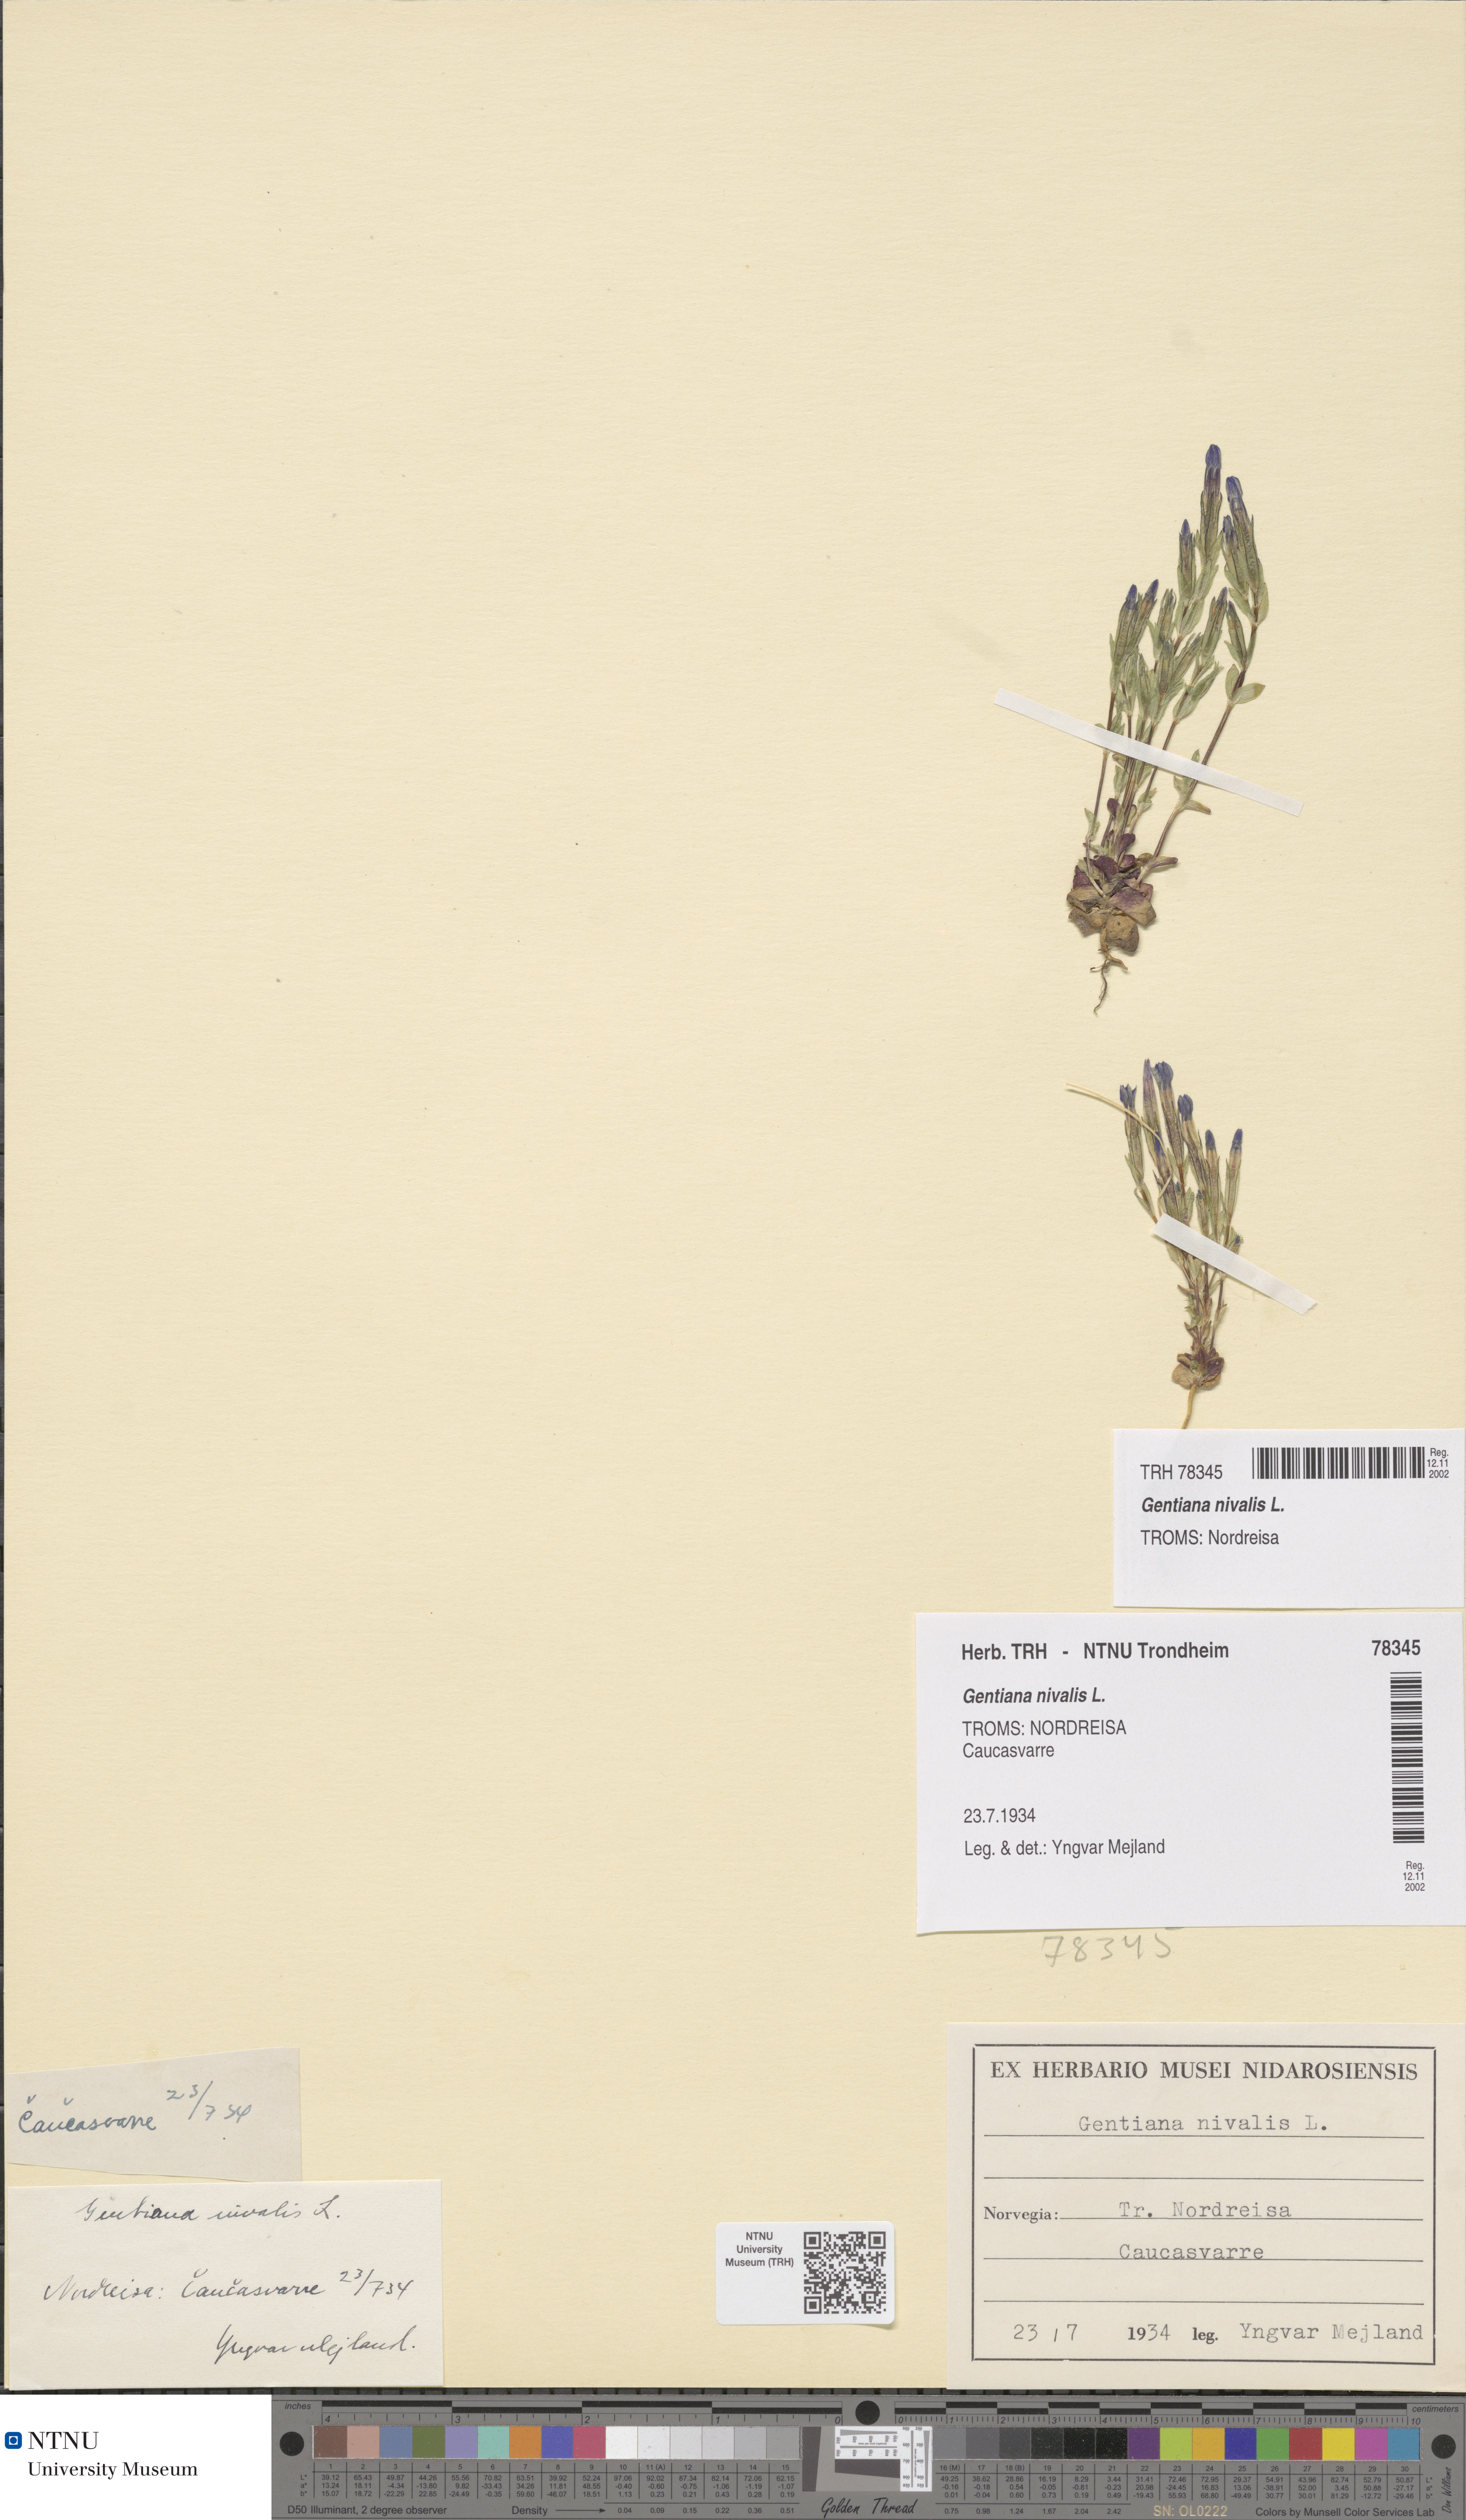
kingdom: Plantae
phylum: Tracheophyta
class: Magnoliopsida
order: Gentianales
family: Gentianaceae
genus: Gentiana
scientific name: Gentiana nivalis
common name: Alpine gentian
